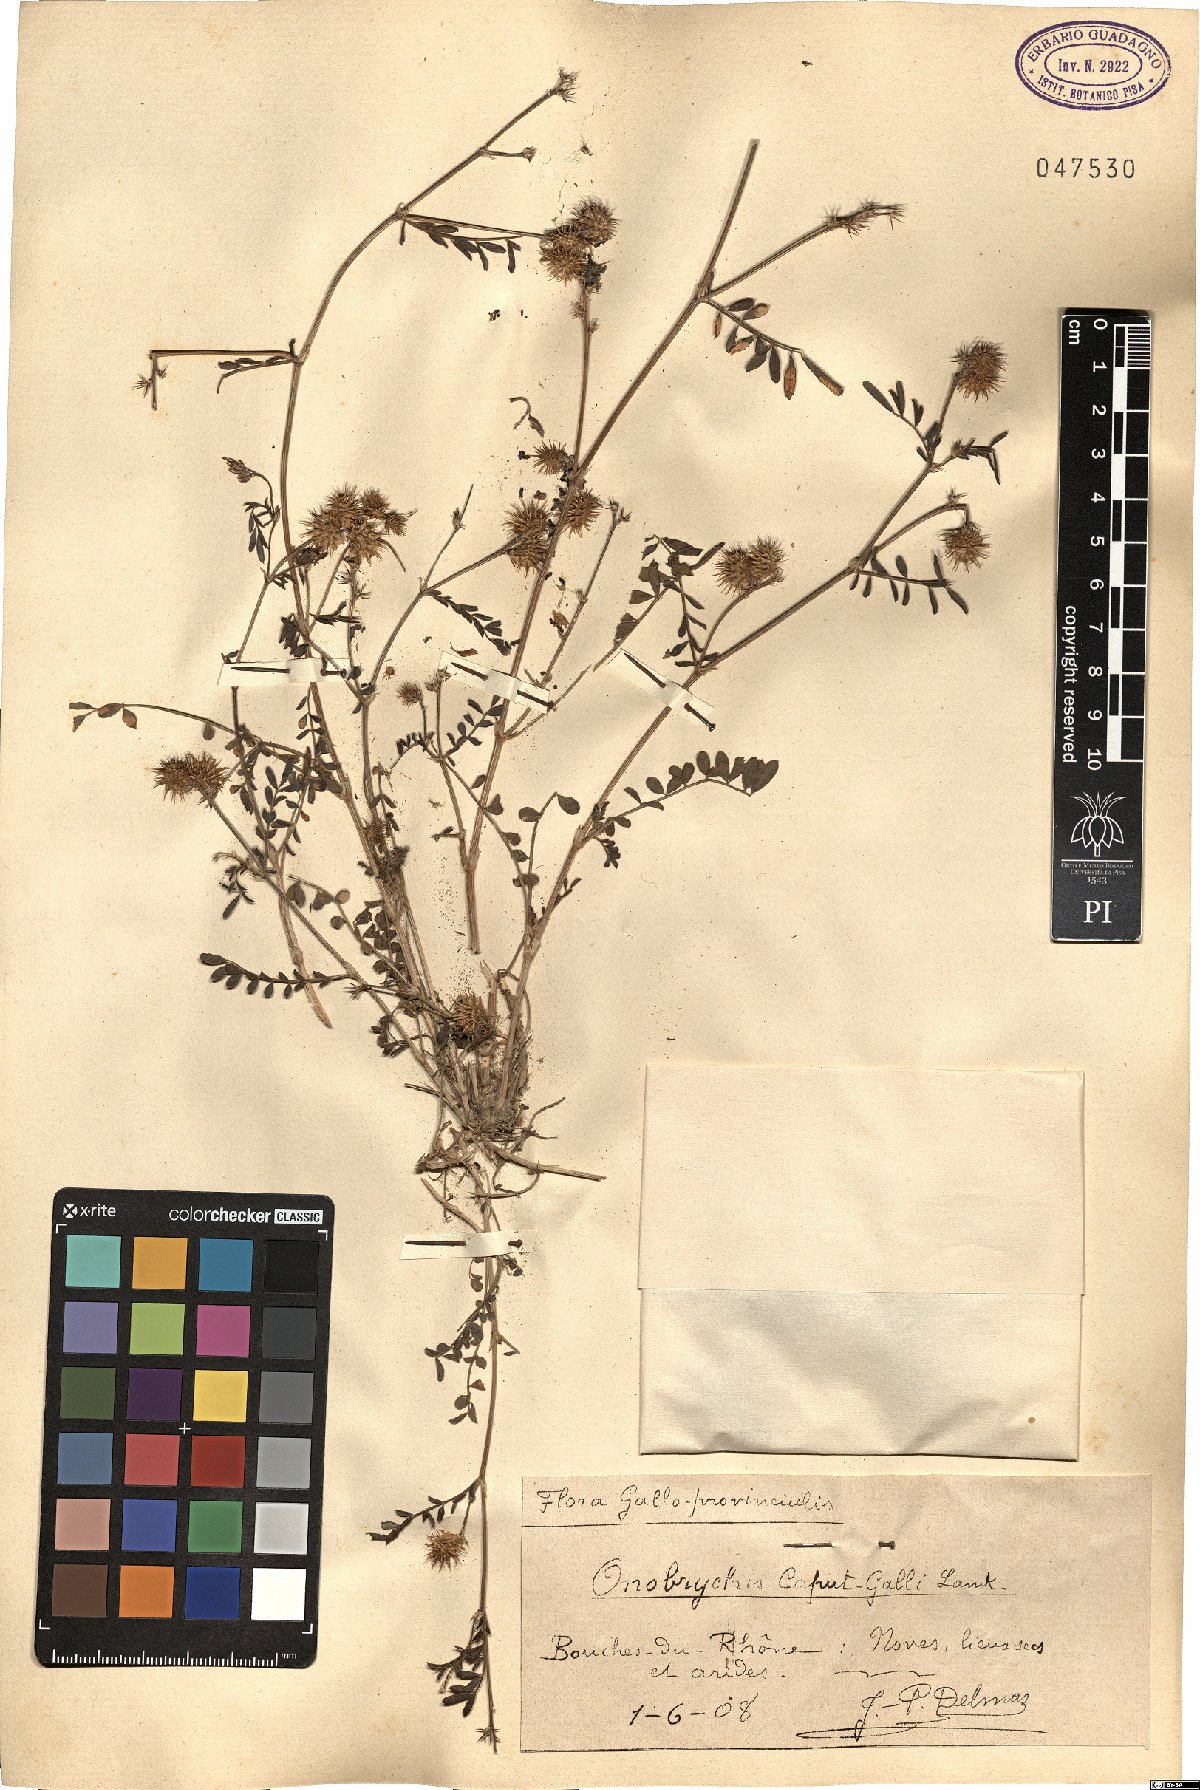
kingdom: Plantae
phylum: Tracheophyta
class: Magnoliopsida
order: Fabales
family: Fabaceae
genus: Onobrychis
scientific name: Onobrychis caput-galli
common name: Cockscomb sainfoin
